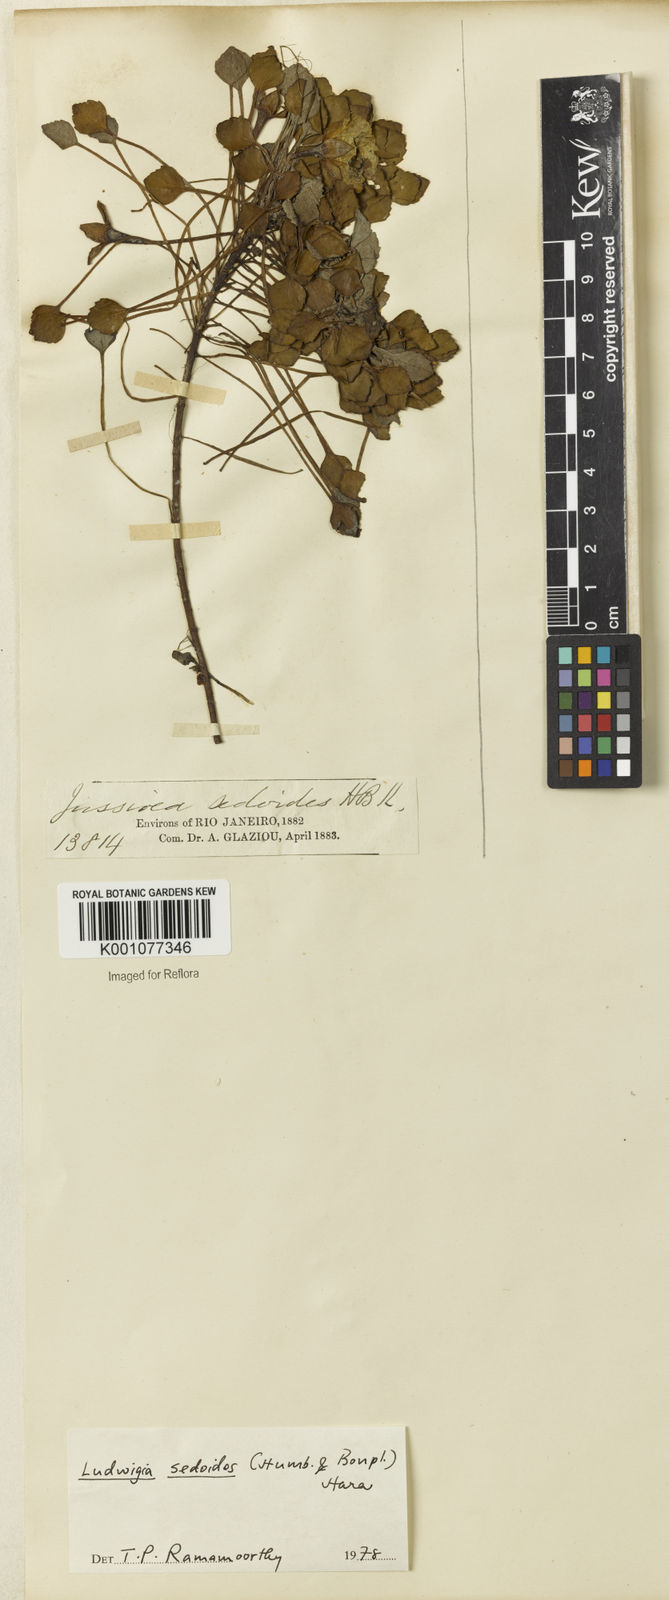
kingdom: Plantae
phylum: Tracheophyta
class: Magnoliopsida
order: Myrtales
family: Onagraceae
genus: Ludwigia
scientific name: Ludwigia sedoides
